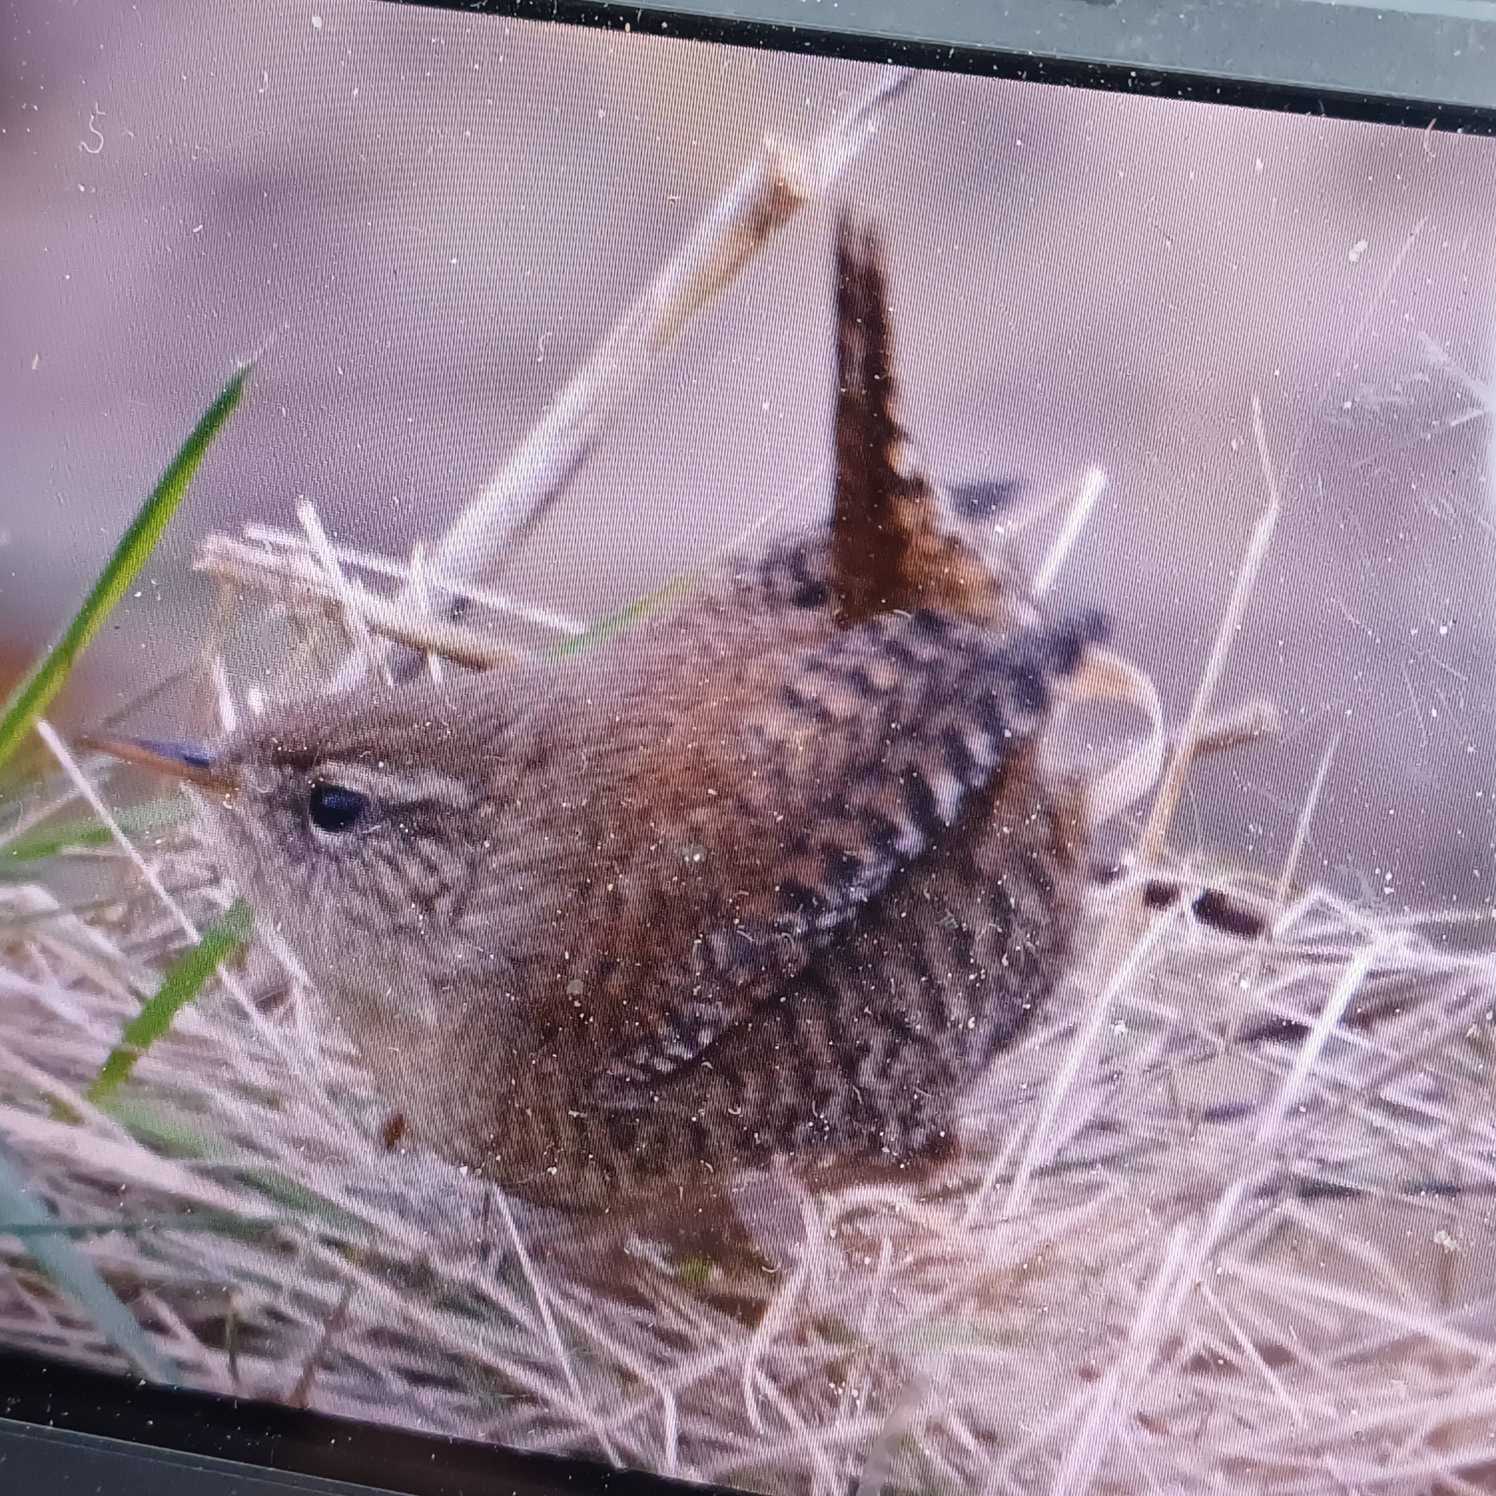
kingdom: Animalia
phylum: Chordata
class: Aves
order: Passeriformes
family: Troglodytidae
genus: Troglodytes
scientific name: Troglodytes troglodytes
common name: Gærdesmutte
